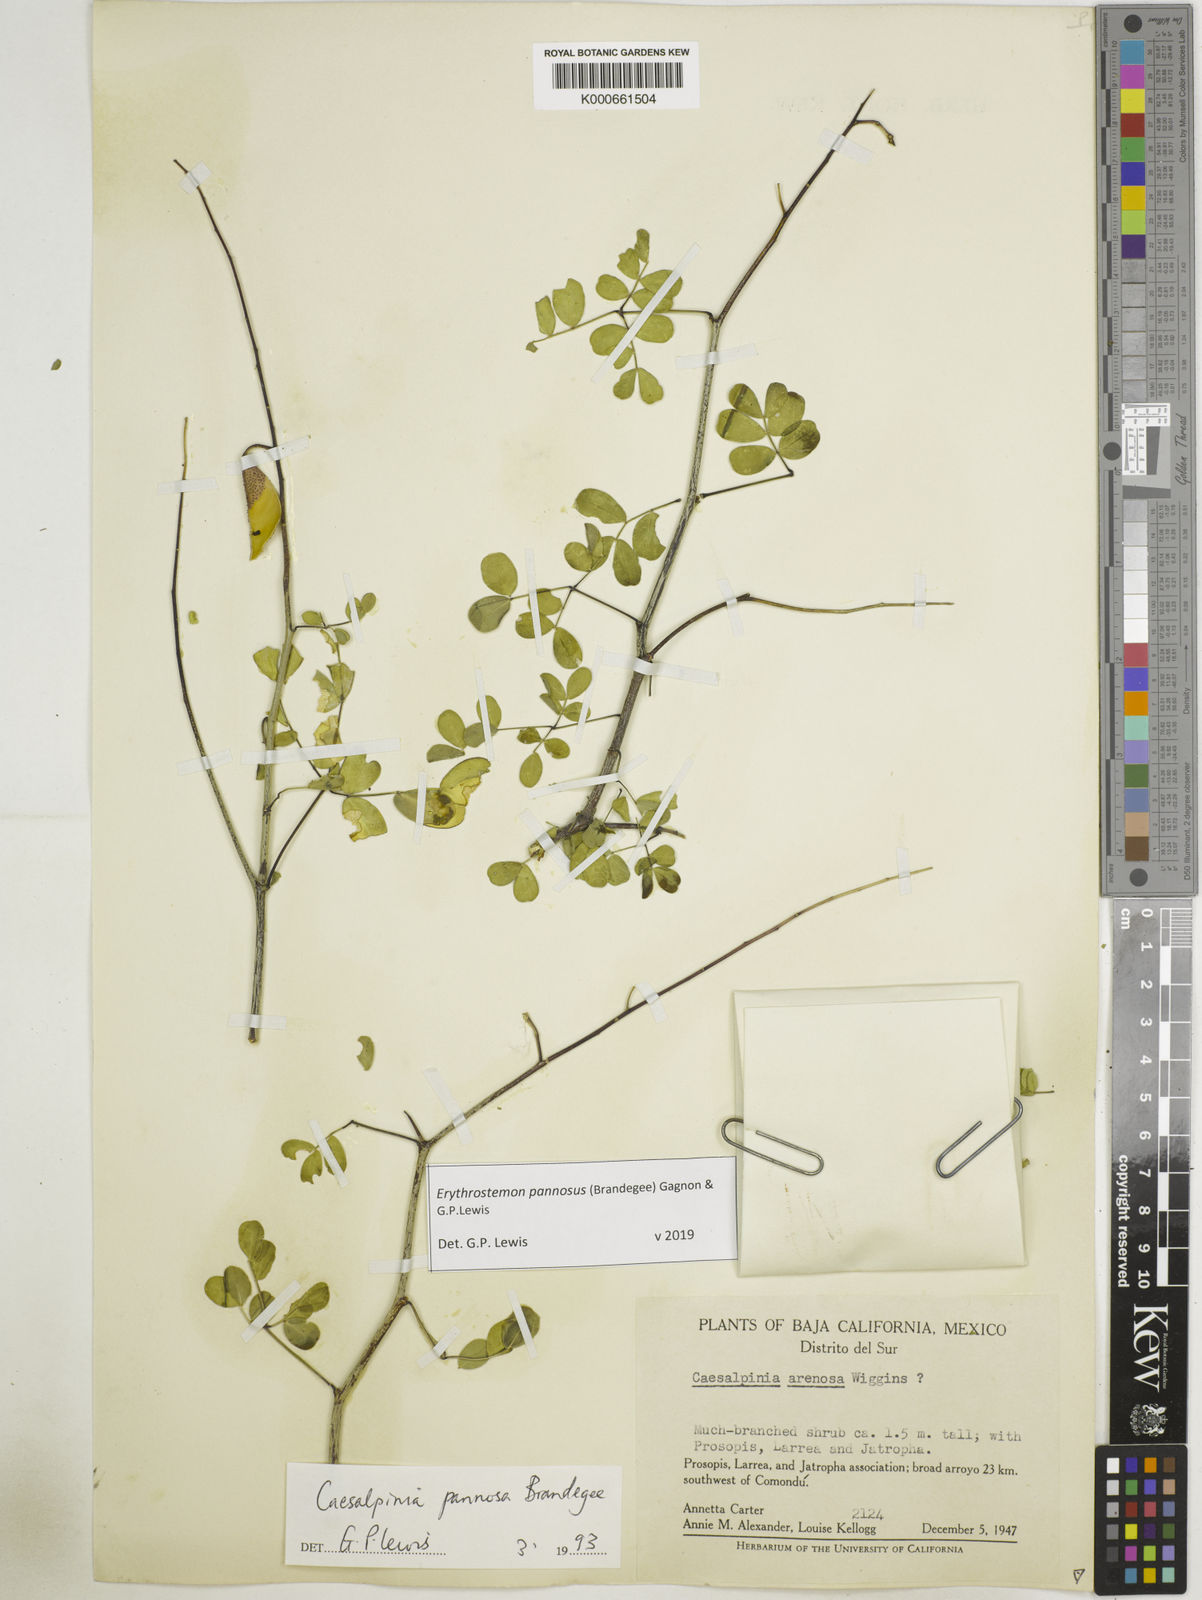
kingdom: Plantae
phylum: Tracheophyta
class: Magnoliopsida
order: Fabales
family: Fabaceae
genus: Erythrostemon
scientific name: Erythrostemon pannosus
